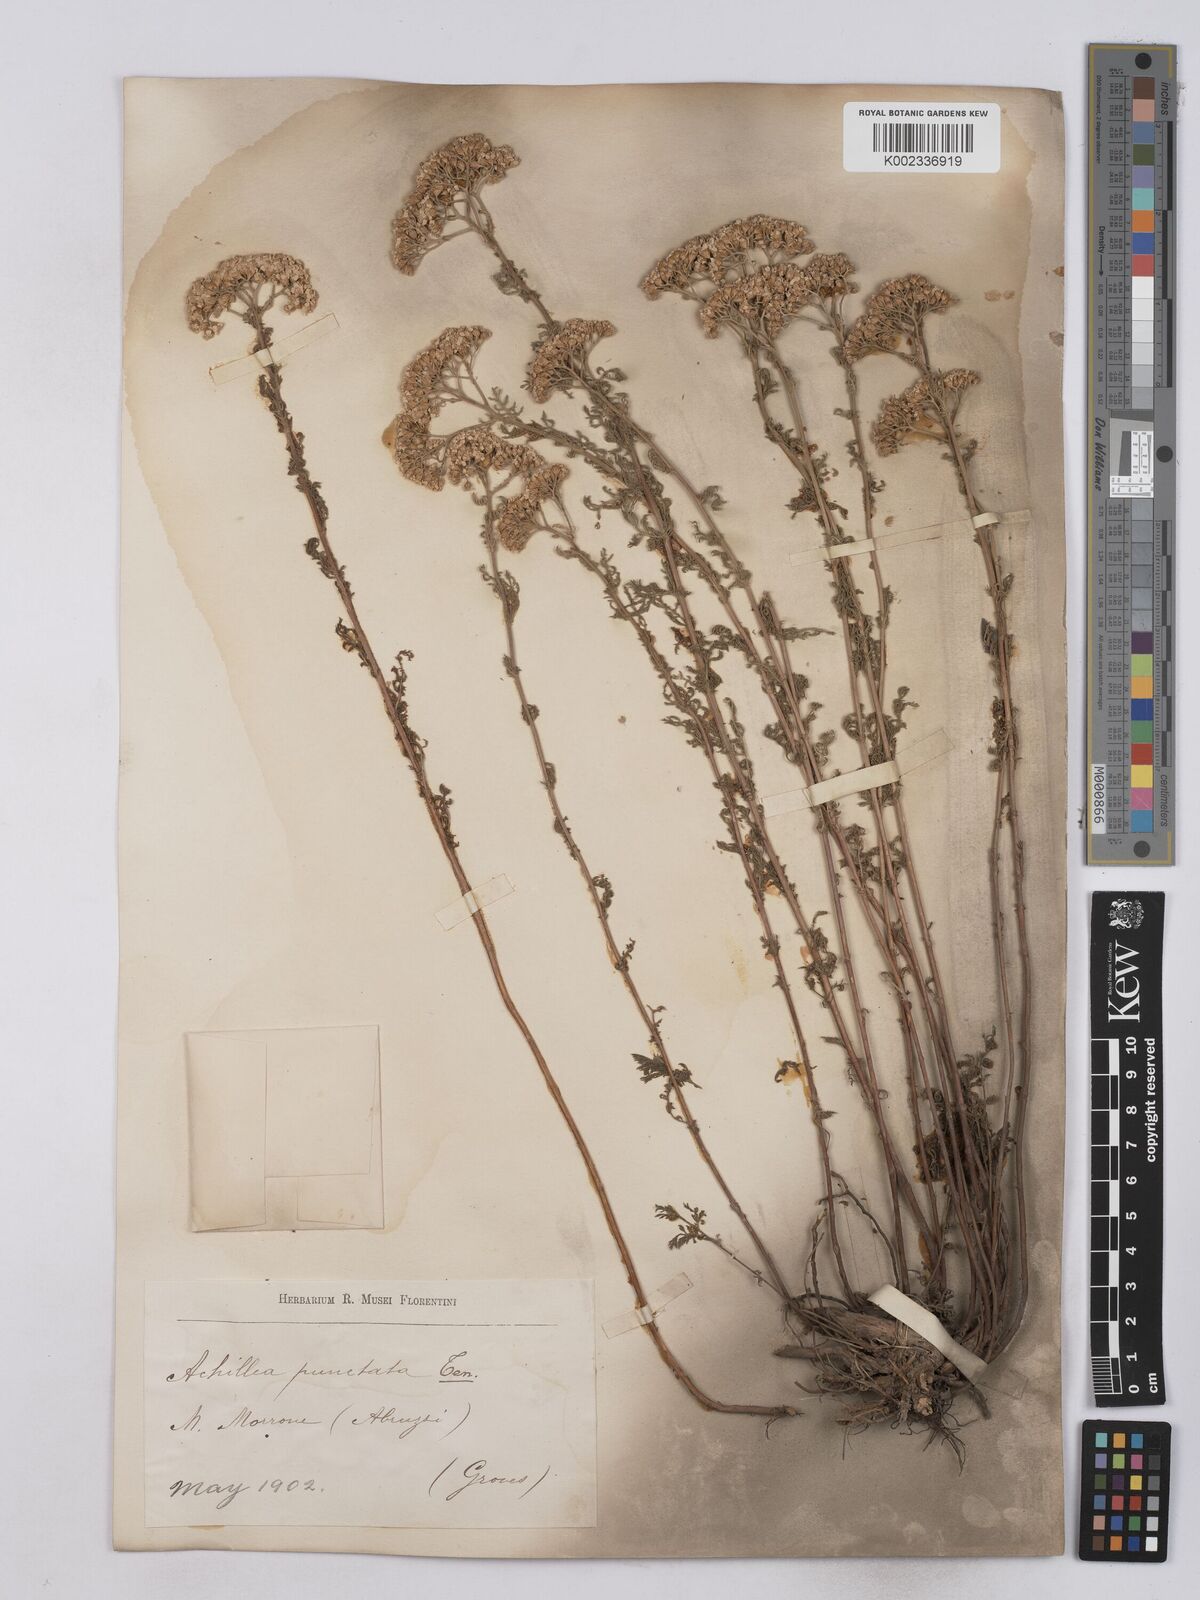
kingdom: Plantae
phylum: Tracheophyta
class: Magnoliopsida
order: Asterales
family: Asteraceae
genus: Achillea
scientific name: Achillea odorata
